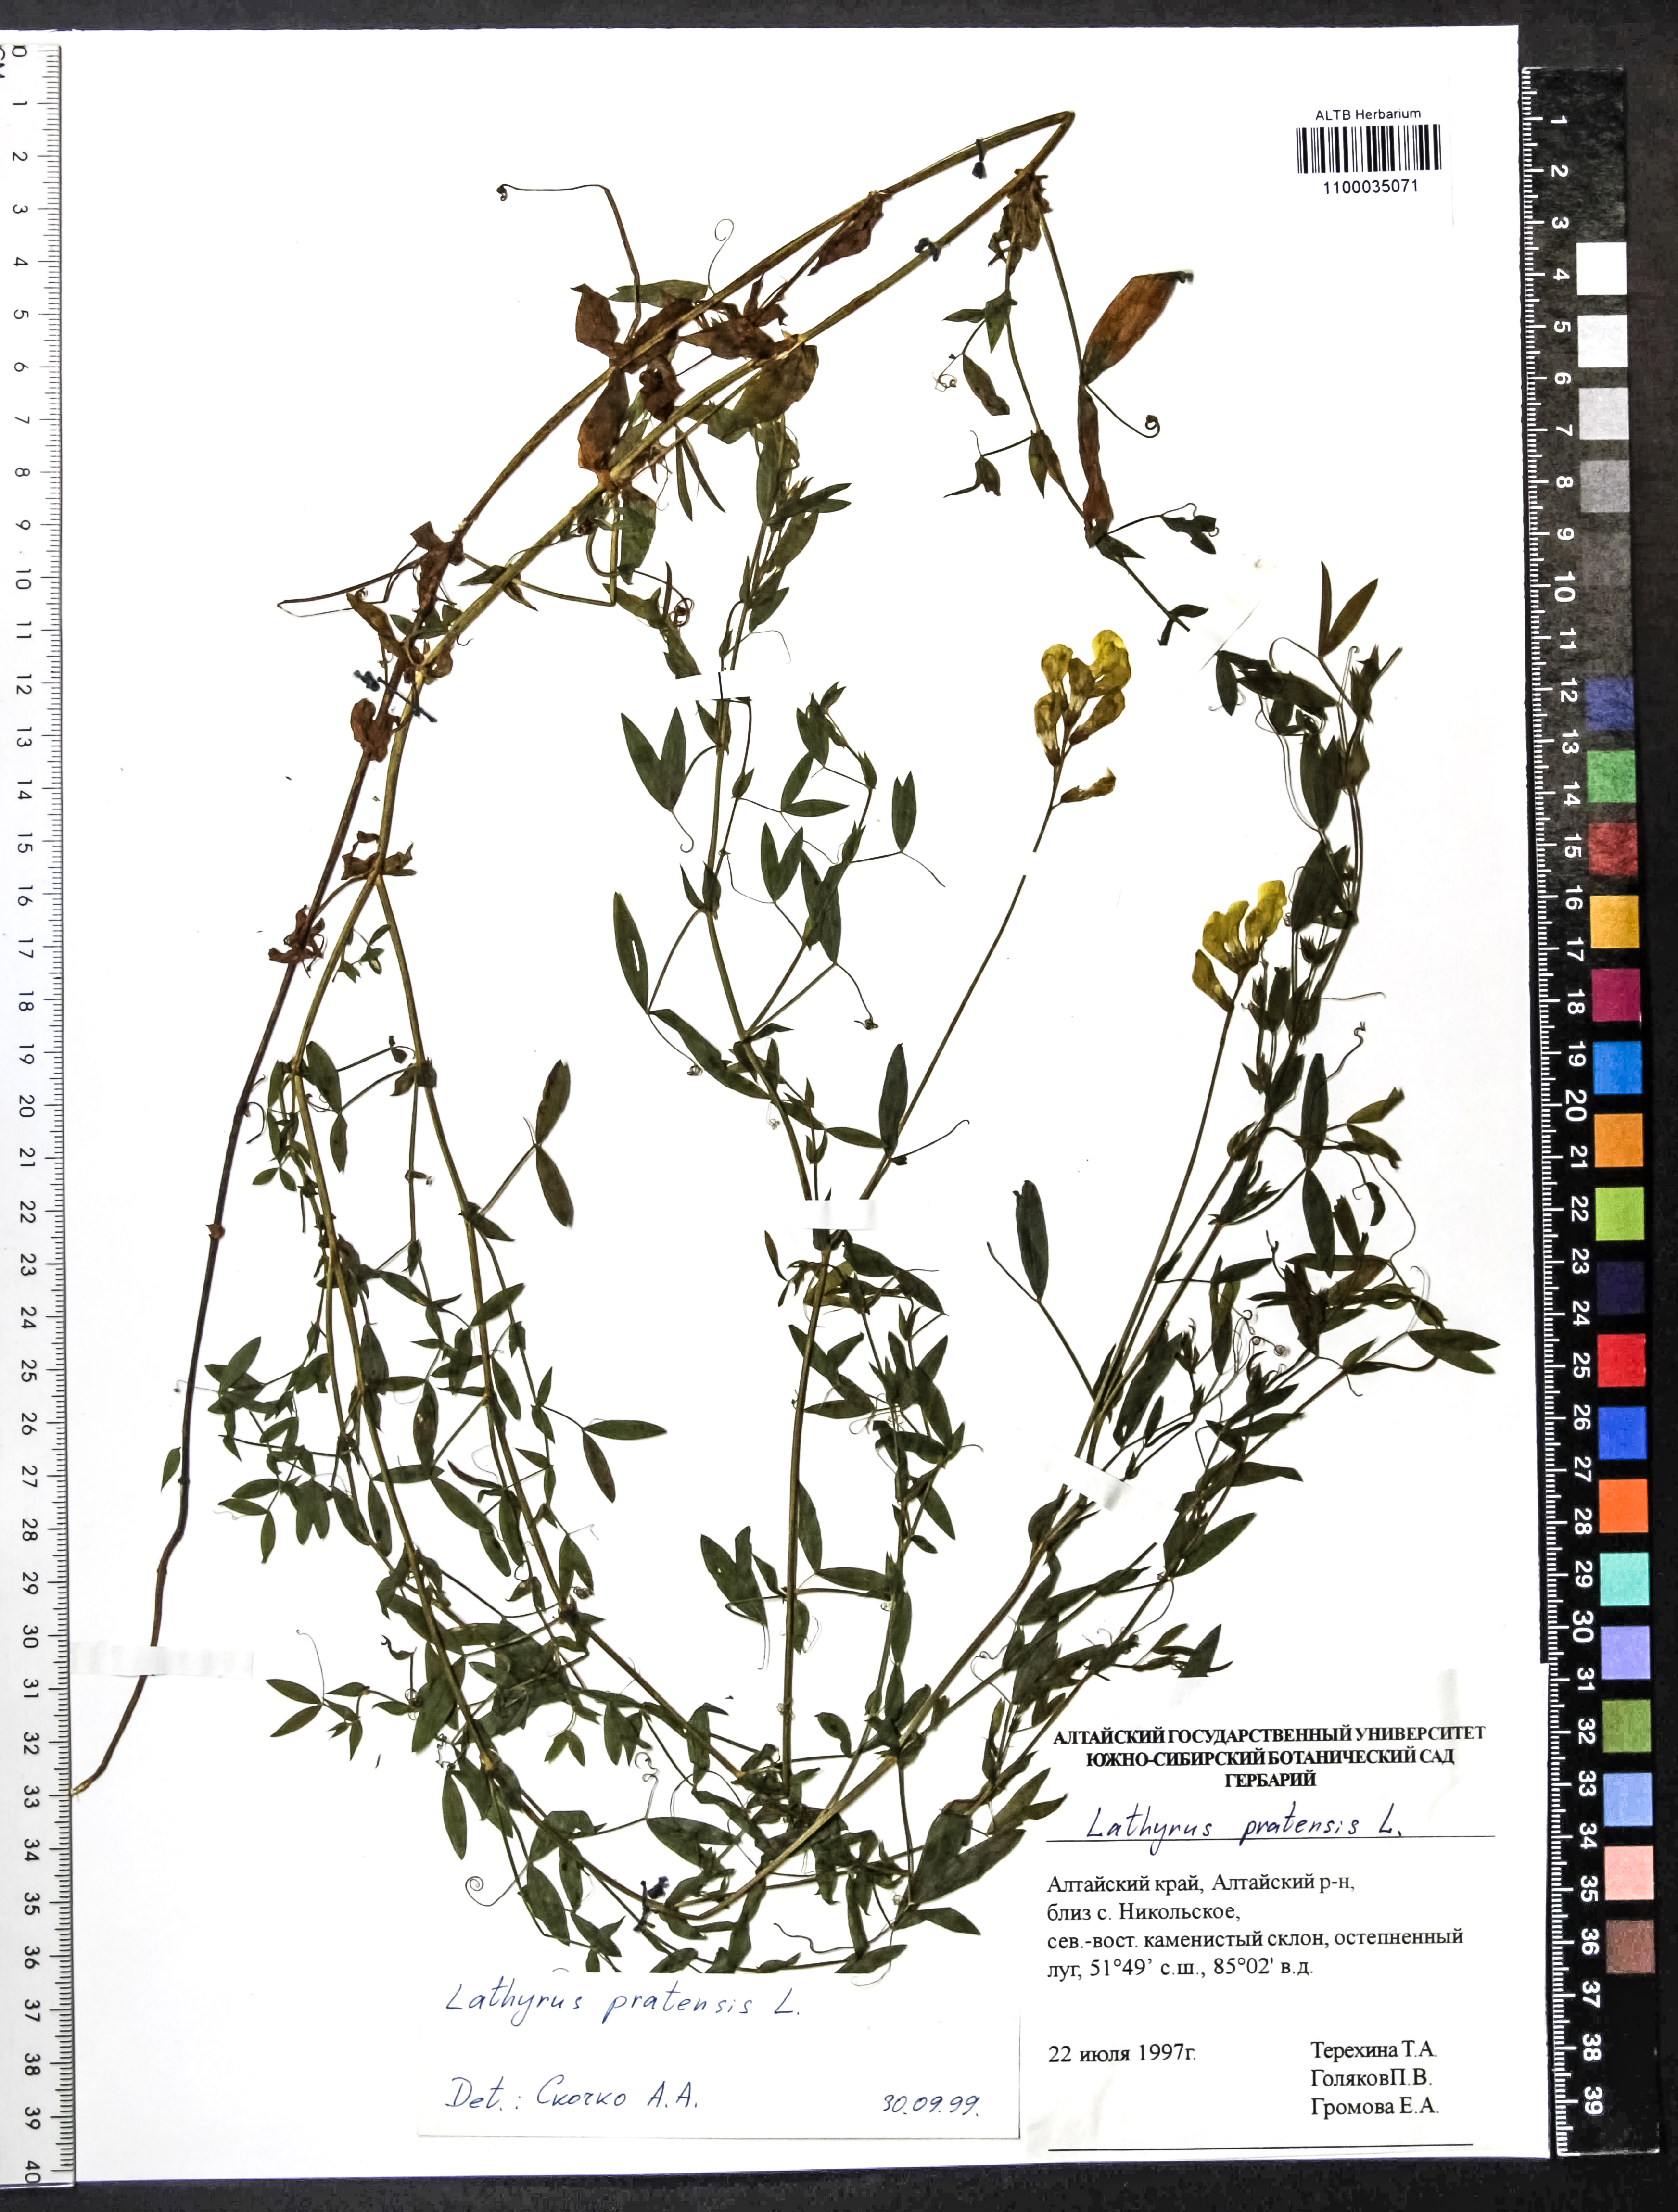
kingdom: Plantae
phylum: Tracheophyta
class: Magnoliopsida
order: Fabales
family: Fabaceae
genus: Lathyrus
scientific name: Lathyrus pratensis
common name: Meadow vetchling
